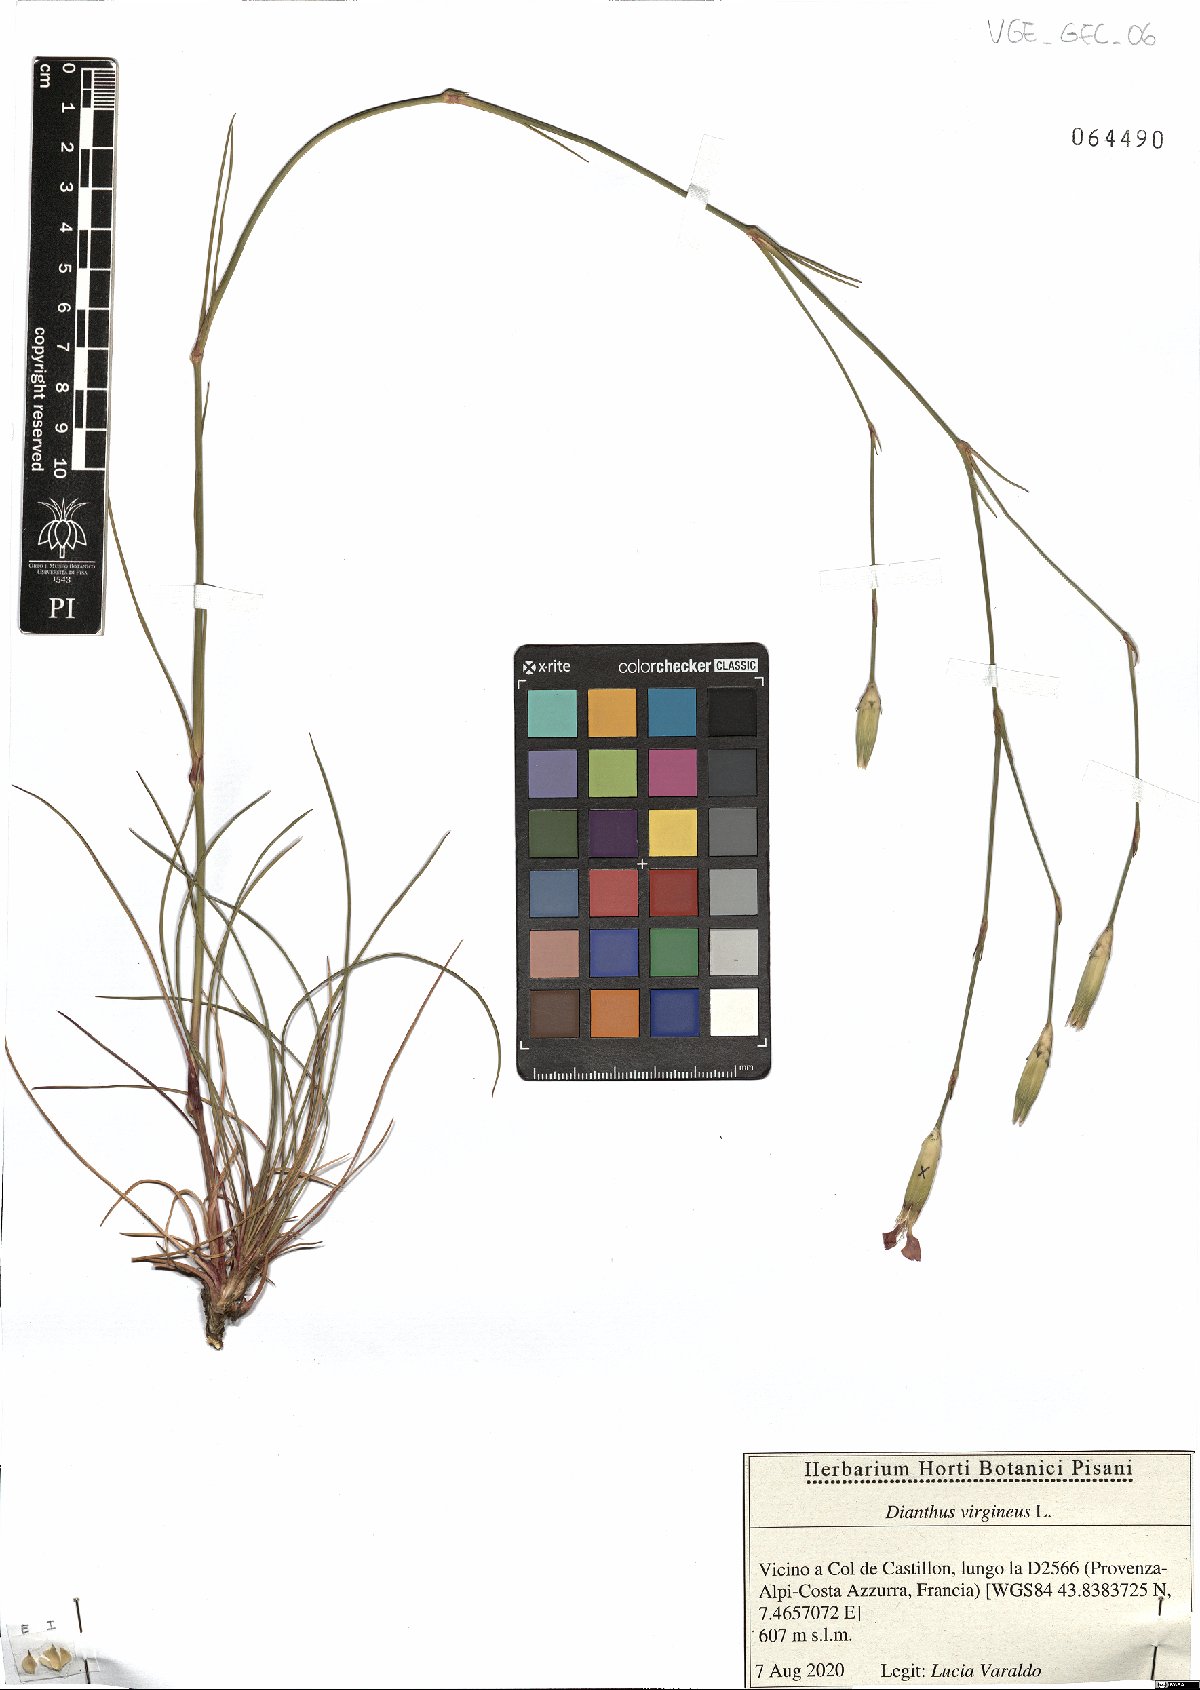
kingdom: Plantae
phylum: Tracheophyta
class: Magnoliopsida
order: Caryophyllales
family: Caryophyllaceae
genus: Dianthus
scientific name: Dianthus virgineus
